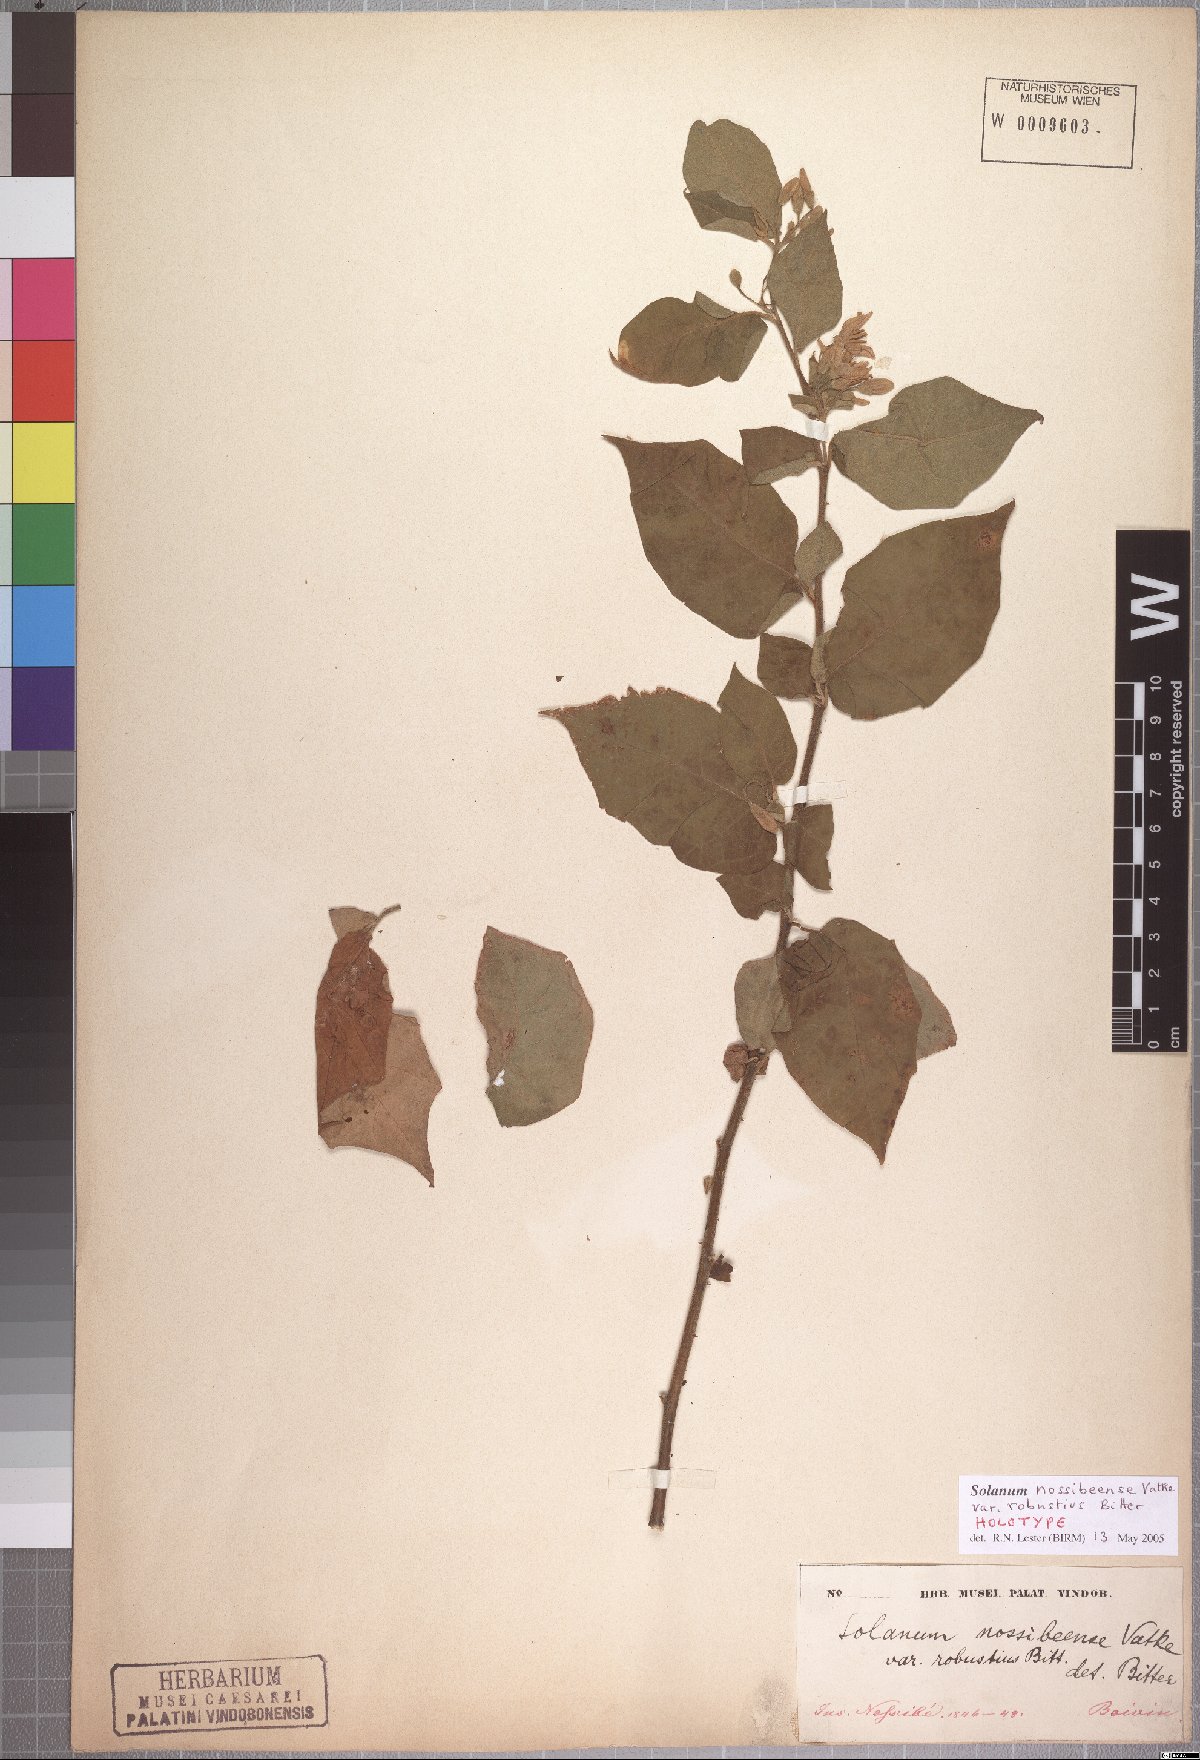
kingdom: Plantae
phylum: Tracheophyta
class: Magnoliopsida
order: Solanales
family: Solanaceae
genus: Solanum
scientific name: Solanum erythracanthum
